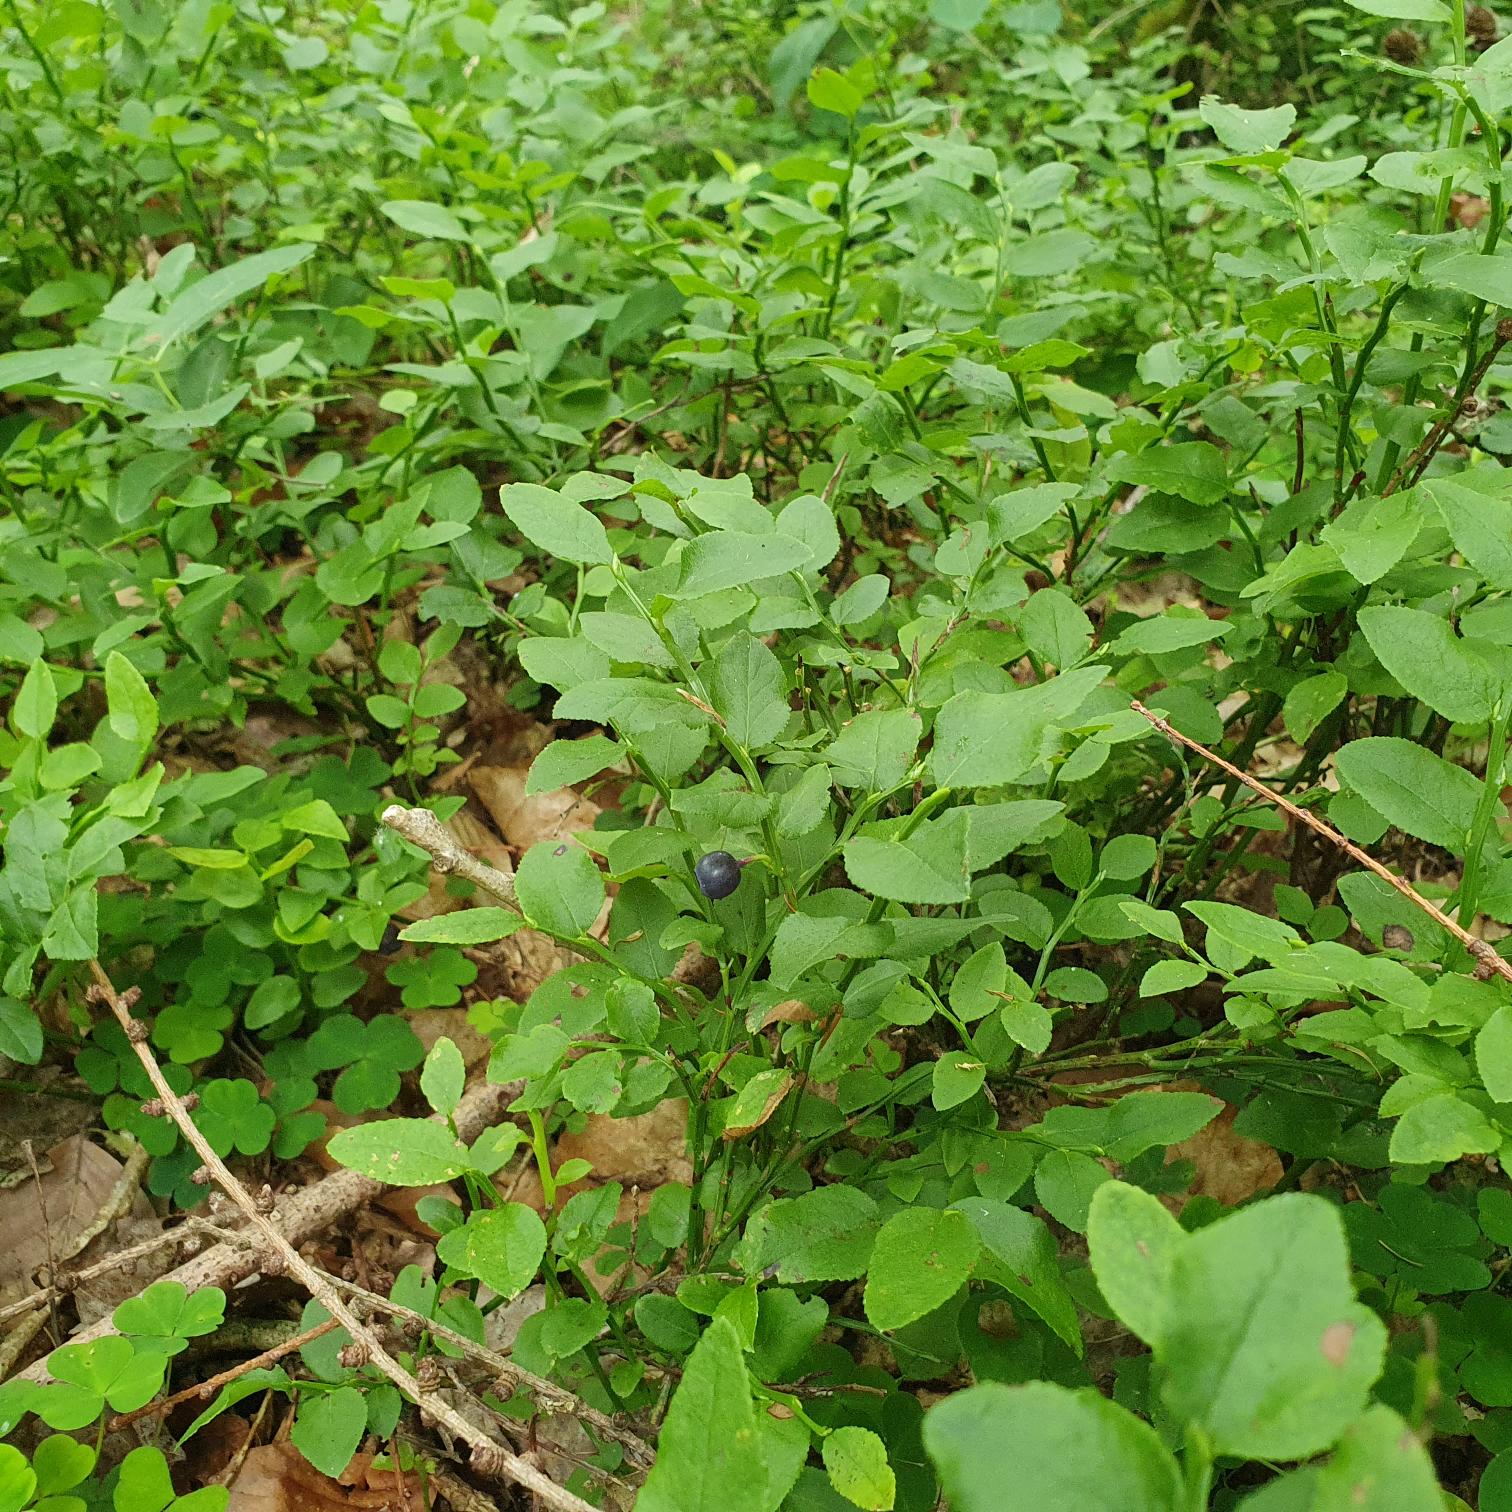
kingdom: Plantae
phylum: Tracheophyta
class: Magnoliopsida
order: Ericales
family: Ericaceae
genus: Vaccinium
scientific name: Vaccinium myrtillus
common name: Blåbær
